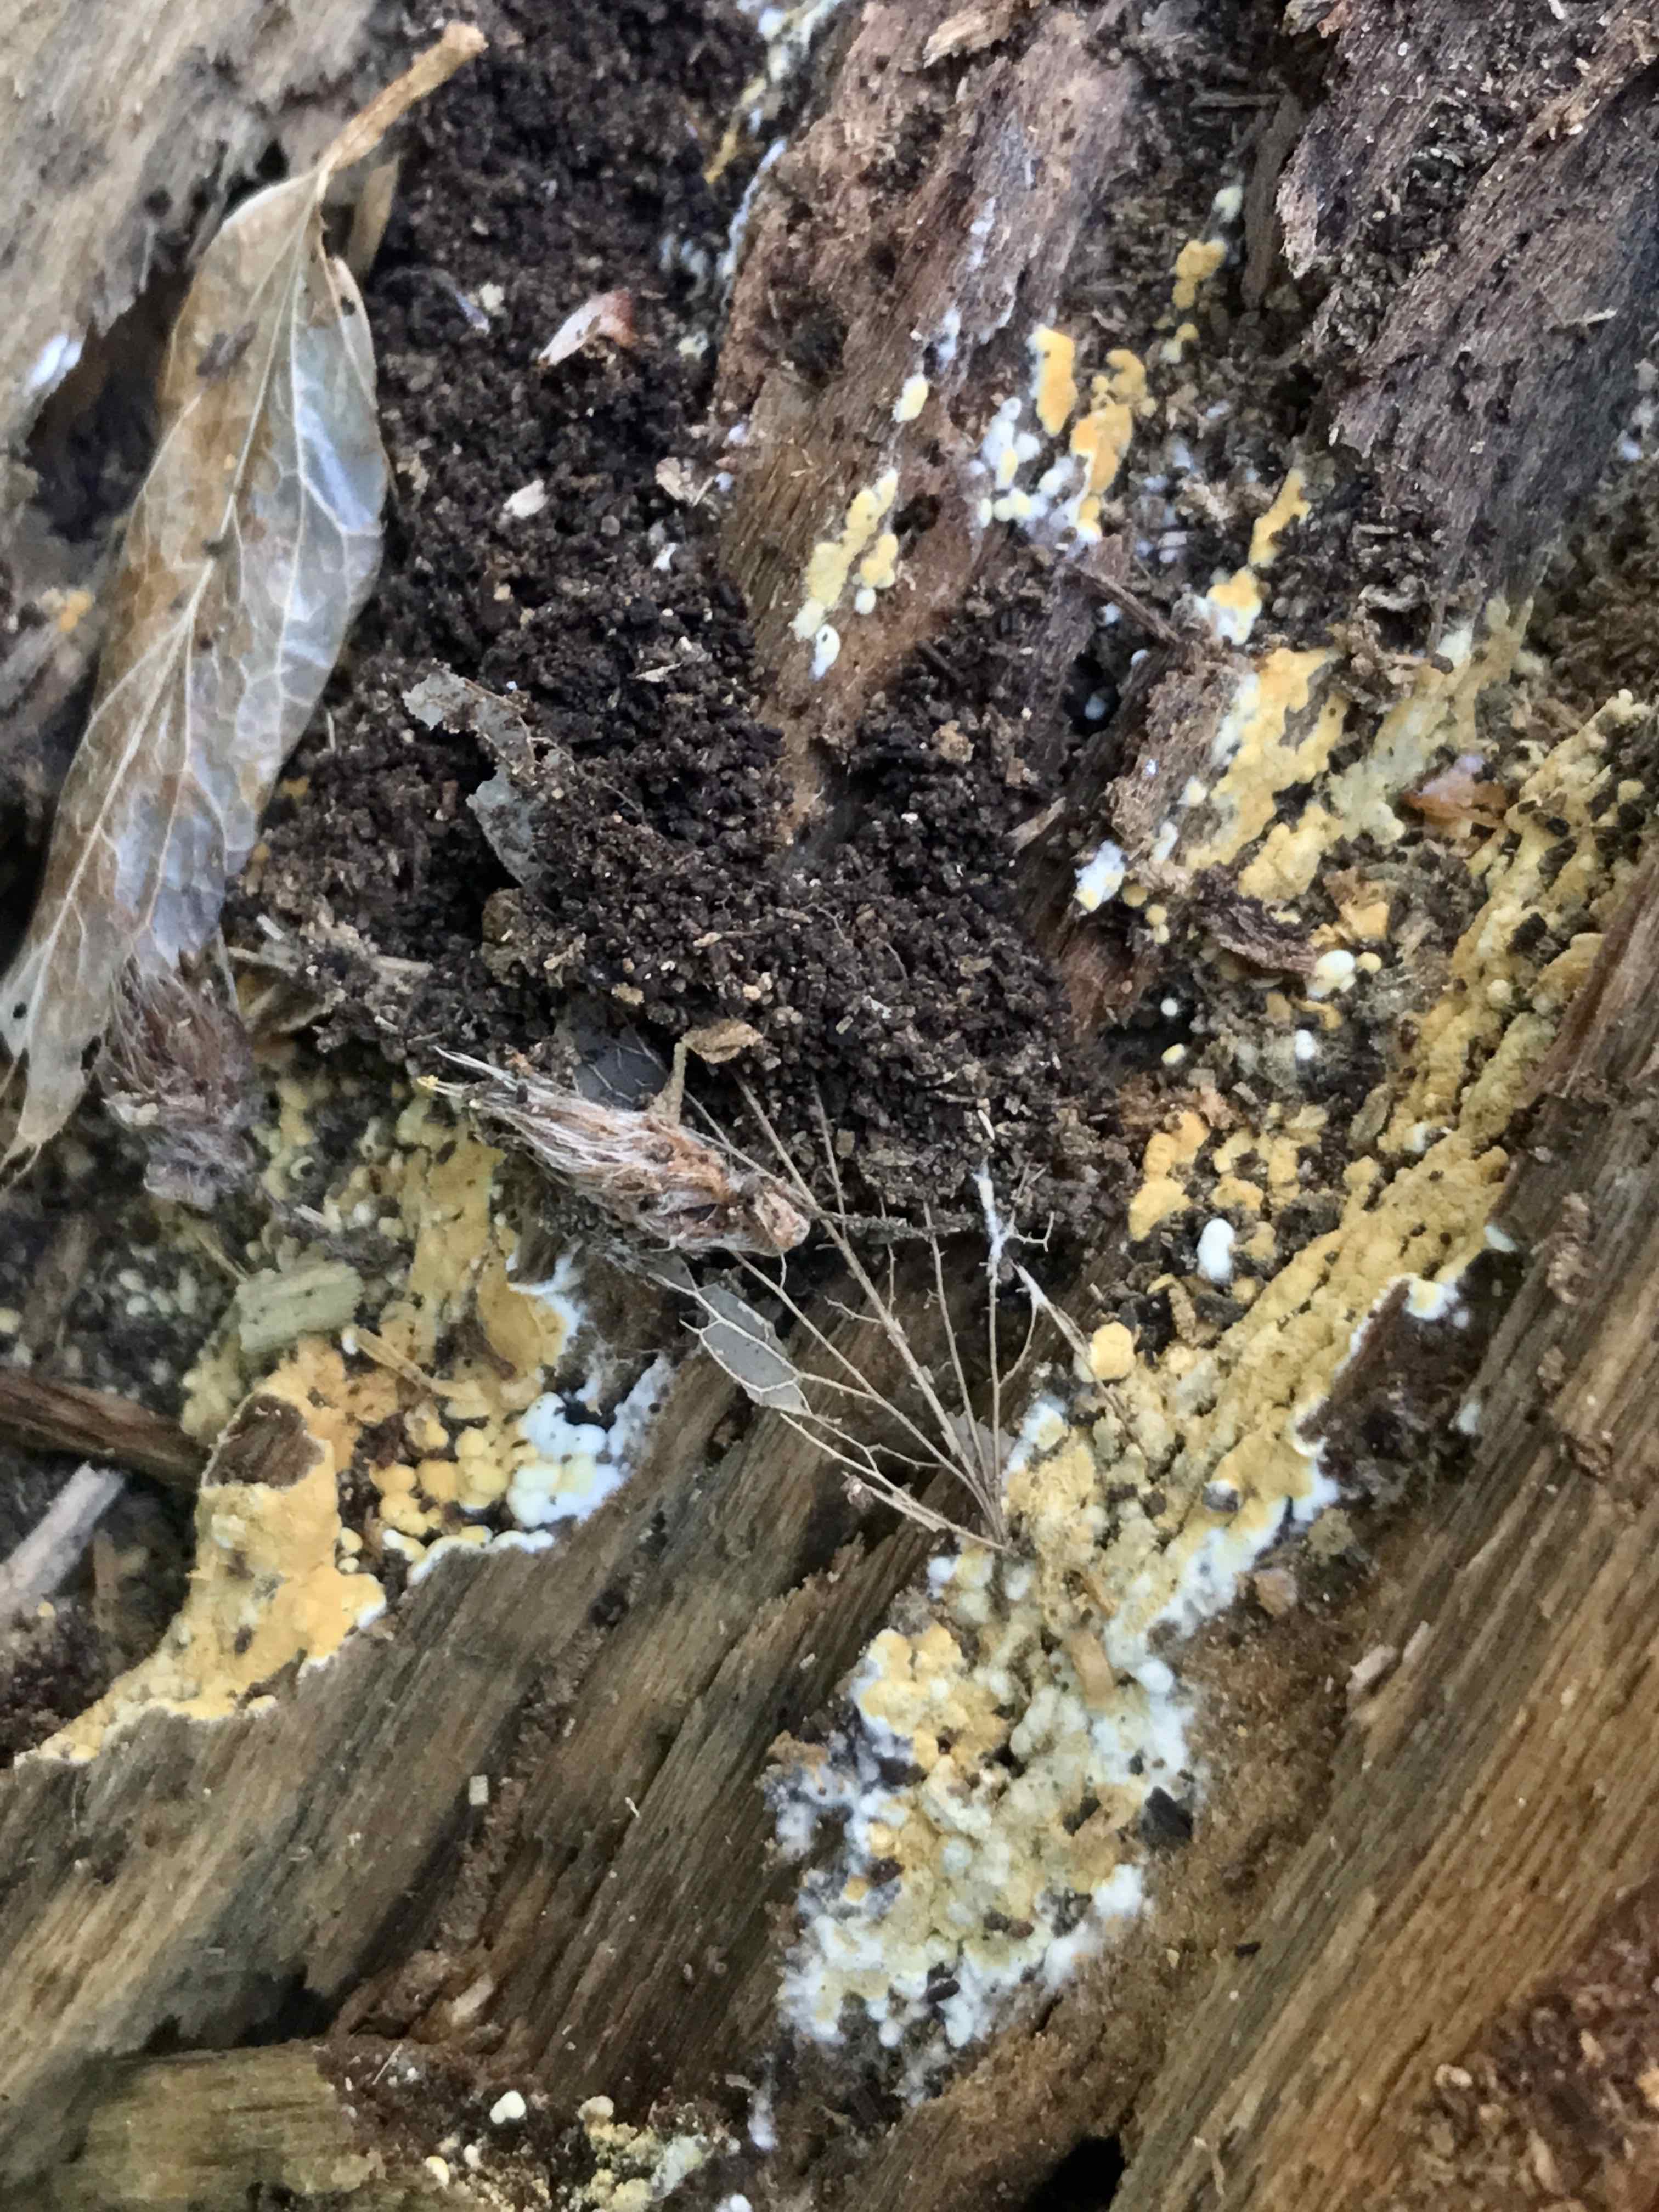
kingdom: Fungi
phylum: Basidiomycota
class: Agaricomycetes
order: Cantharellales
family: Botryobasidiaceae
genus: Botryobasidium
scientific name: Botryobasidium aureum
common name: gylden spindhinde
